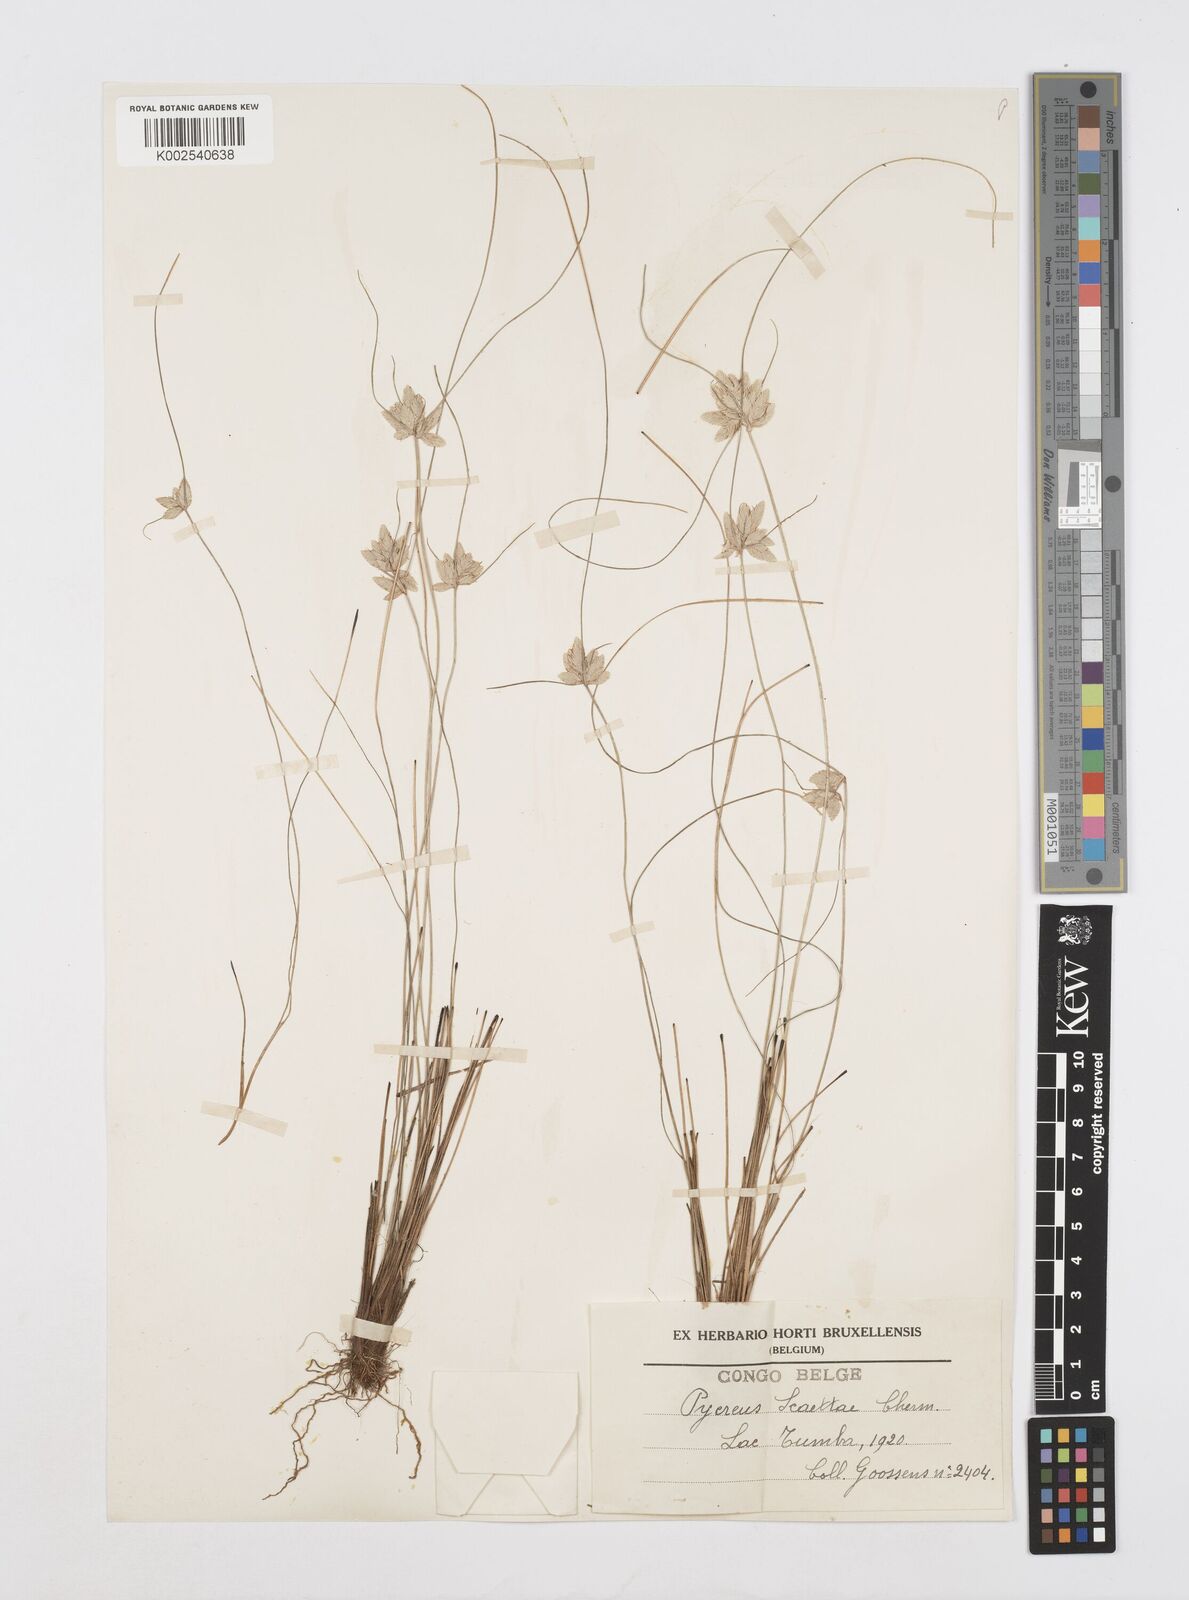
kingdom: Plantae
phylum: Tracheophyta
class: Liliopsida
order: Poales
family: Cyperaceae
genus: Cyperus
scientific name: Cyperus scaettae
